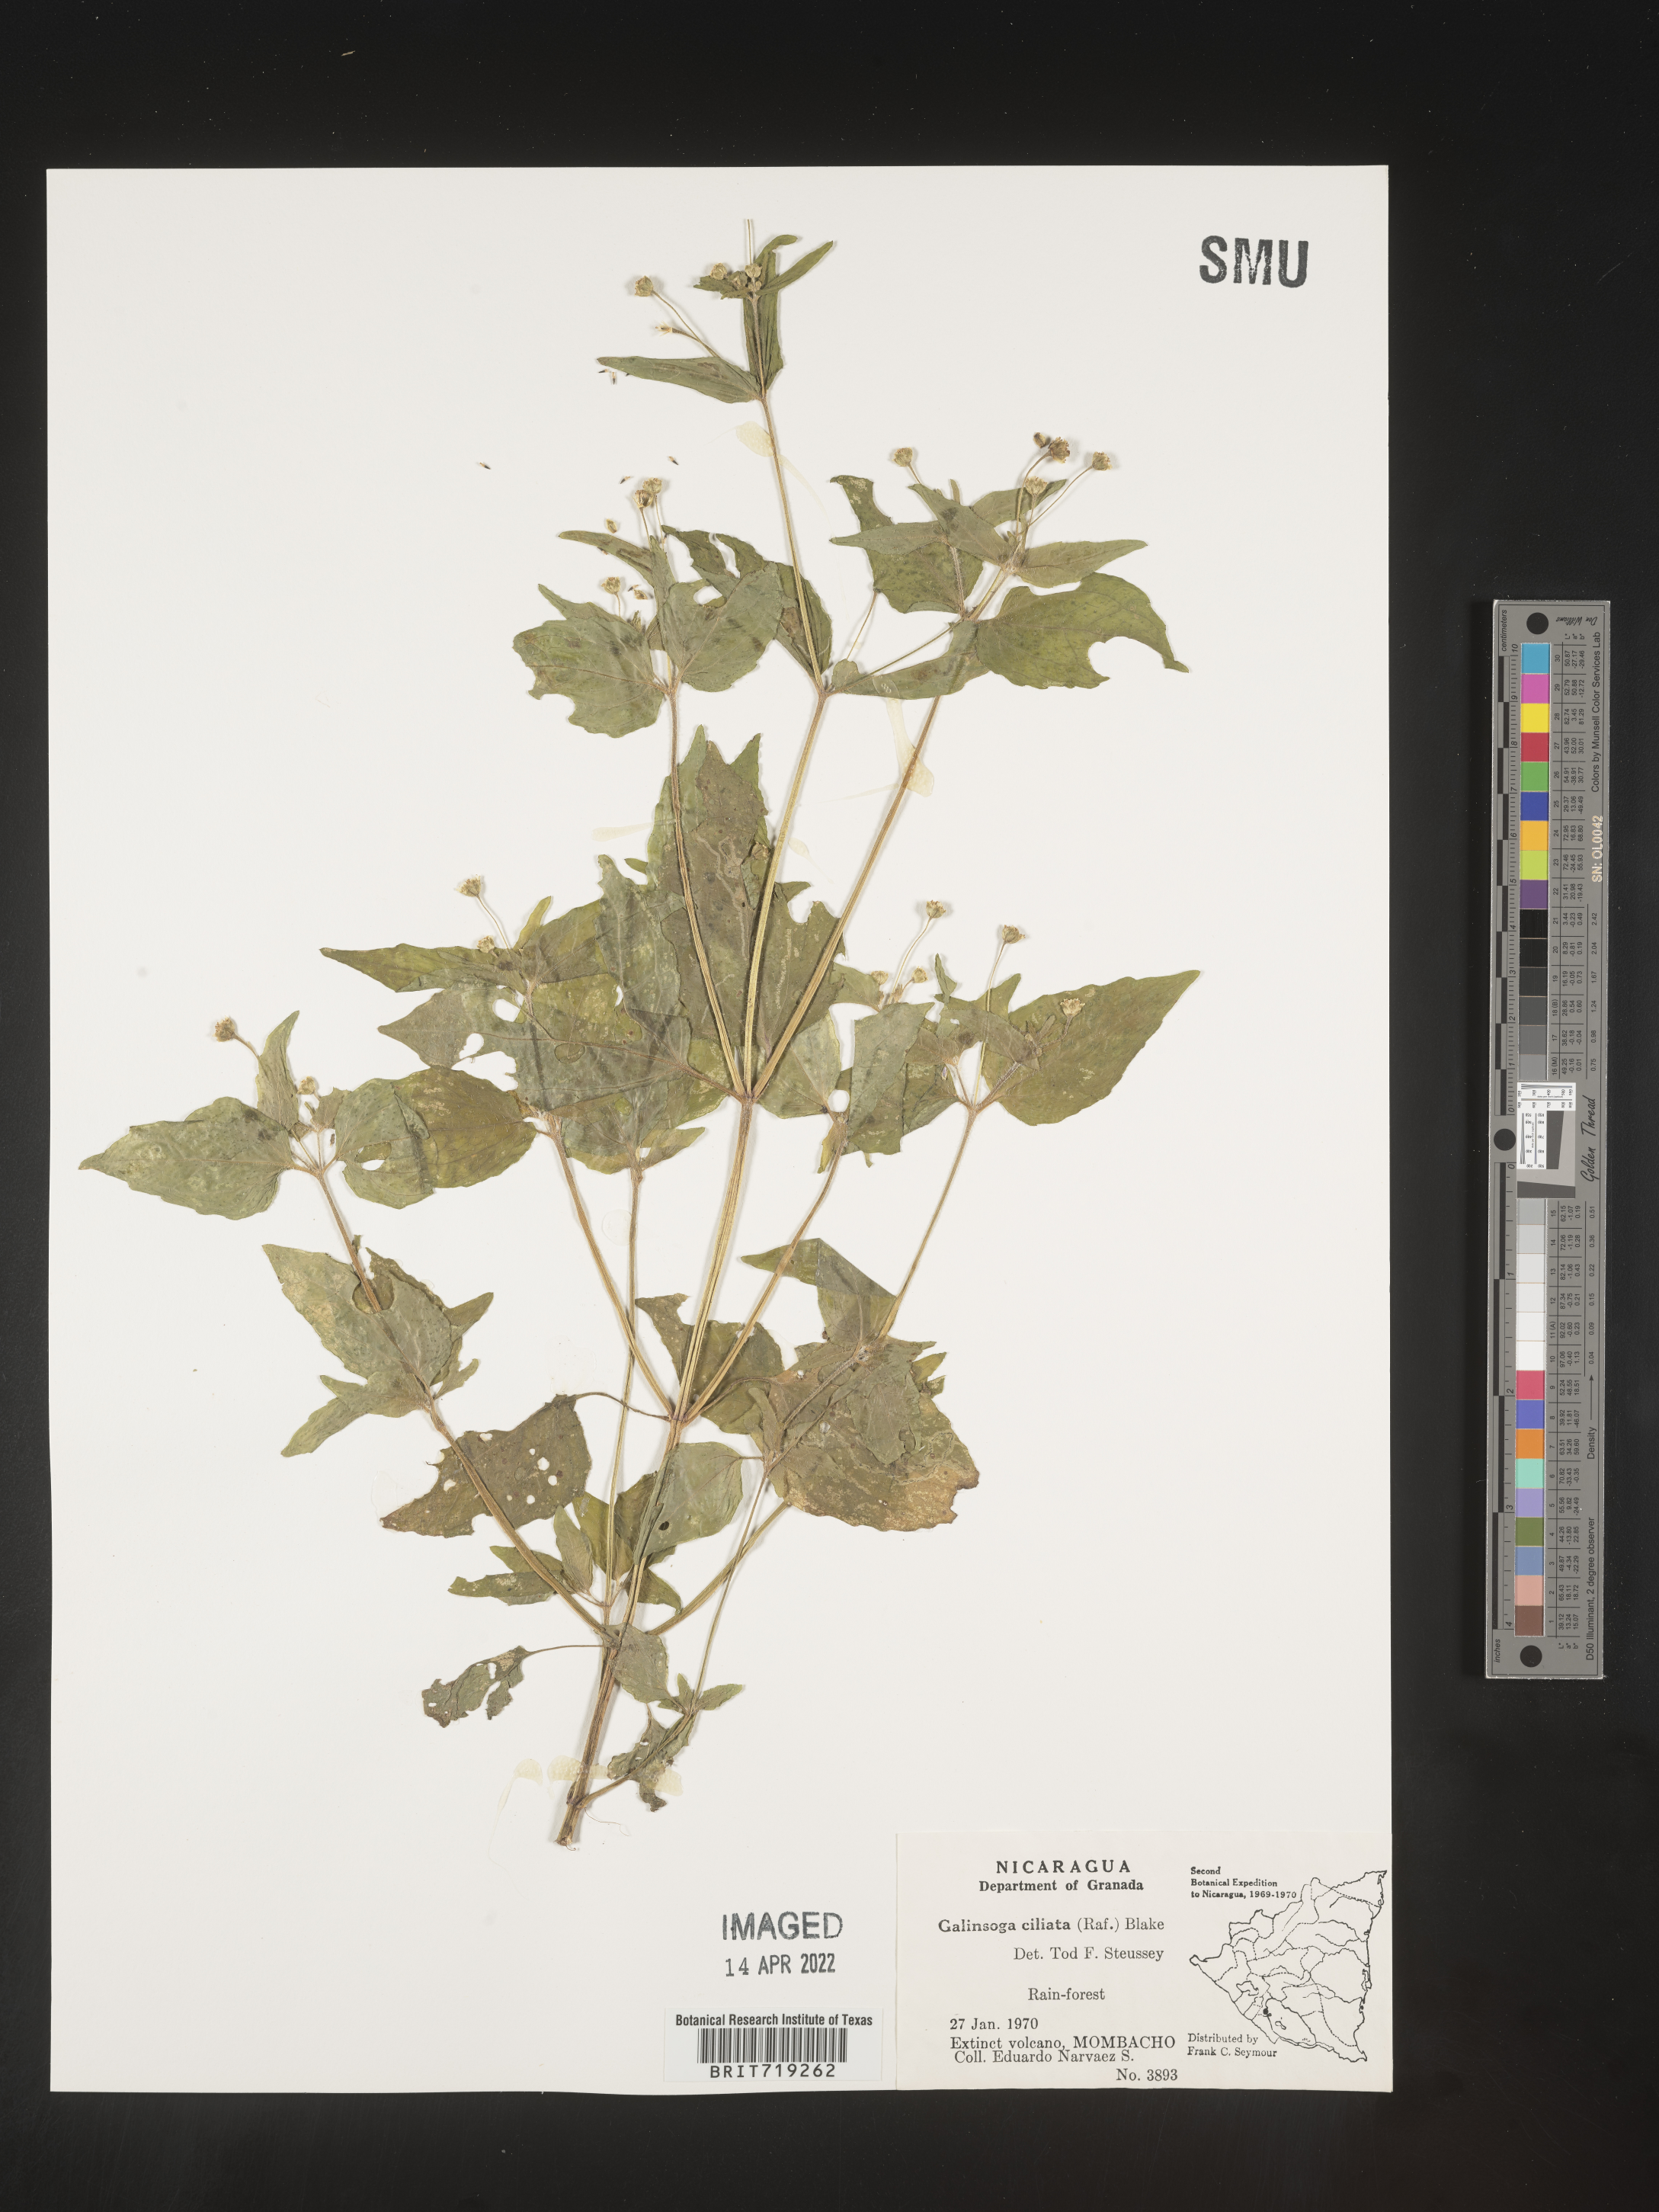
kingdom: Plantae
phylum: Tracheophyta
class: Magnoliopsida
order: Asterales
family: Asteraceae
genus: Galinsoga
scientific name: Galinsoga
